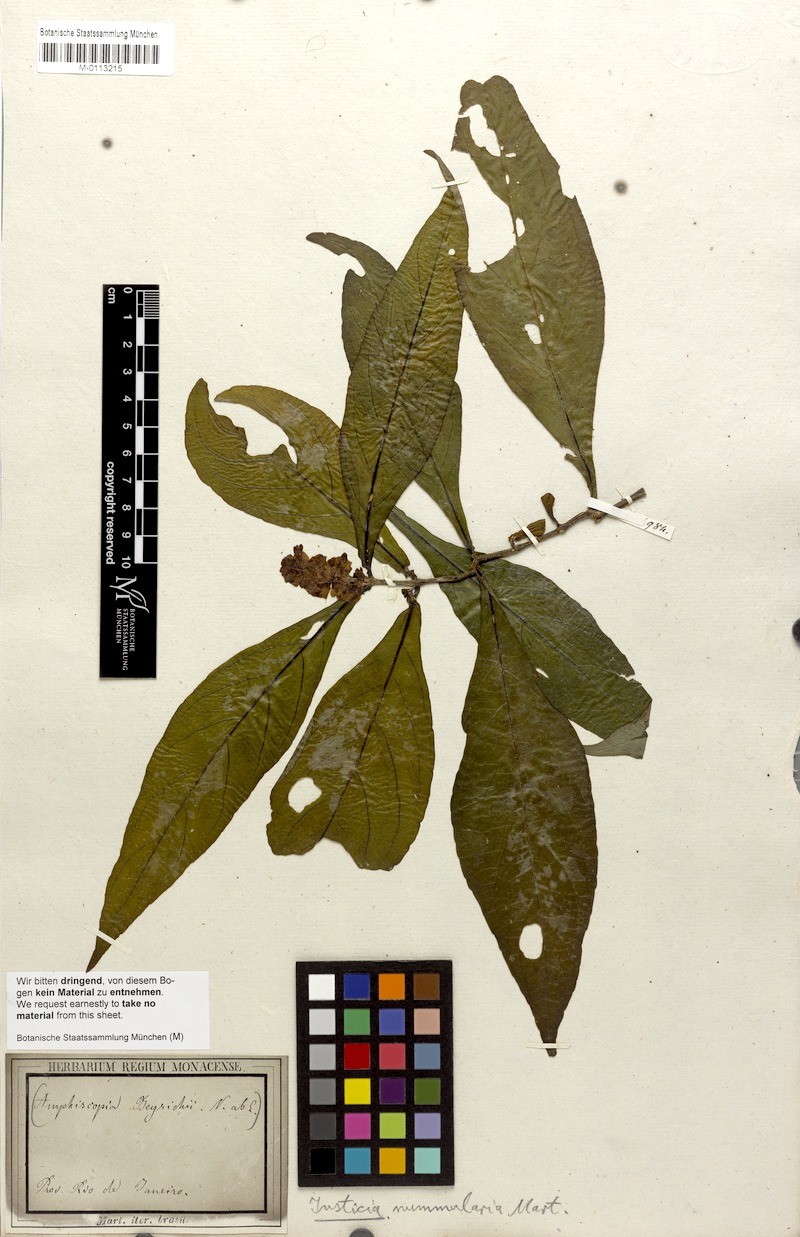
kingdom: Plantae
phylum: Tracheophyta
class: Magnoliopsida
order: Lamiales
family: Acanthaceae
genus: Dianthera
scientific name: Dianthera brasiliensis
